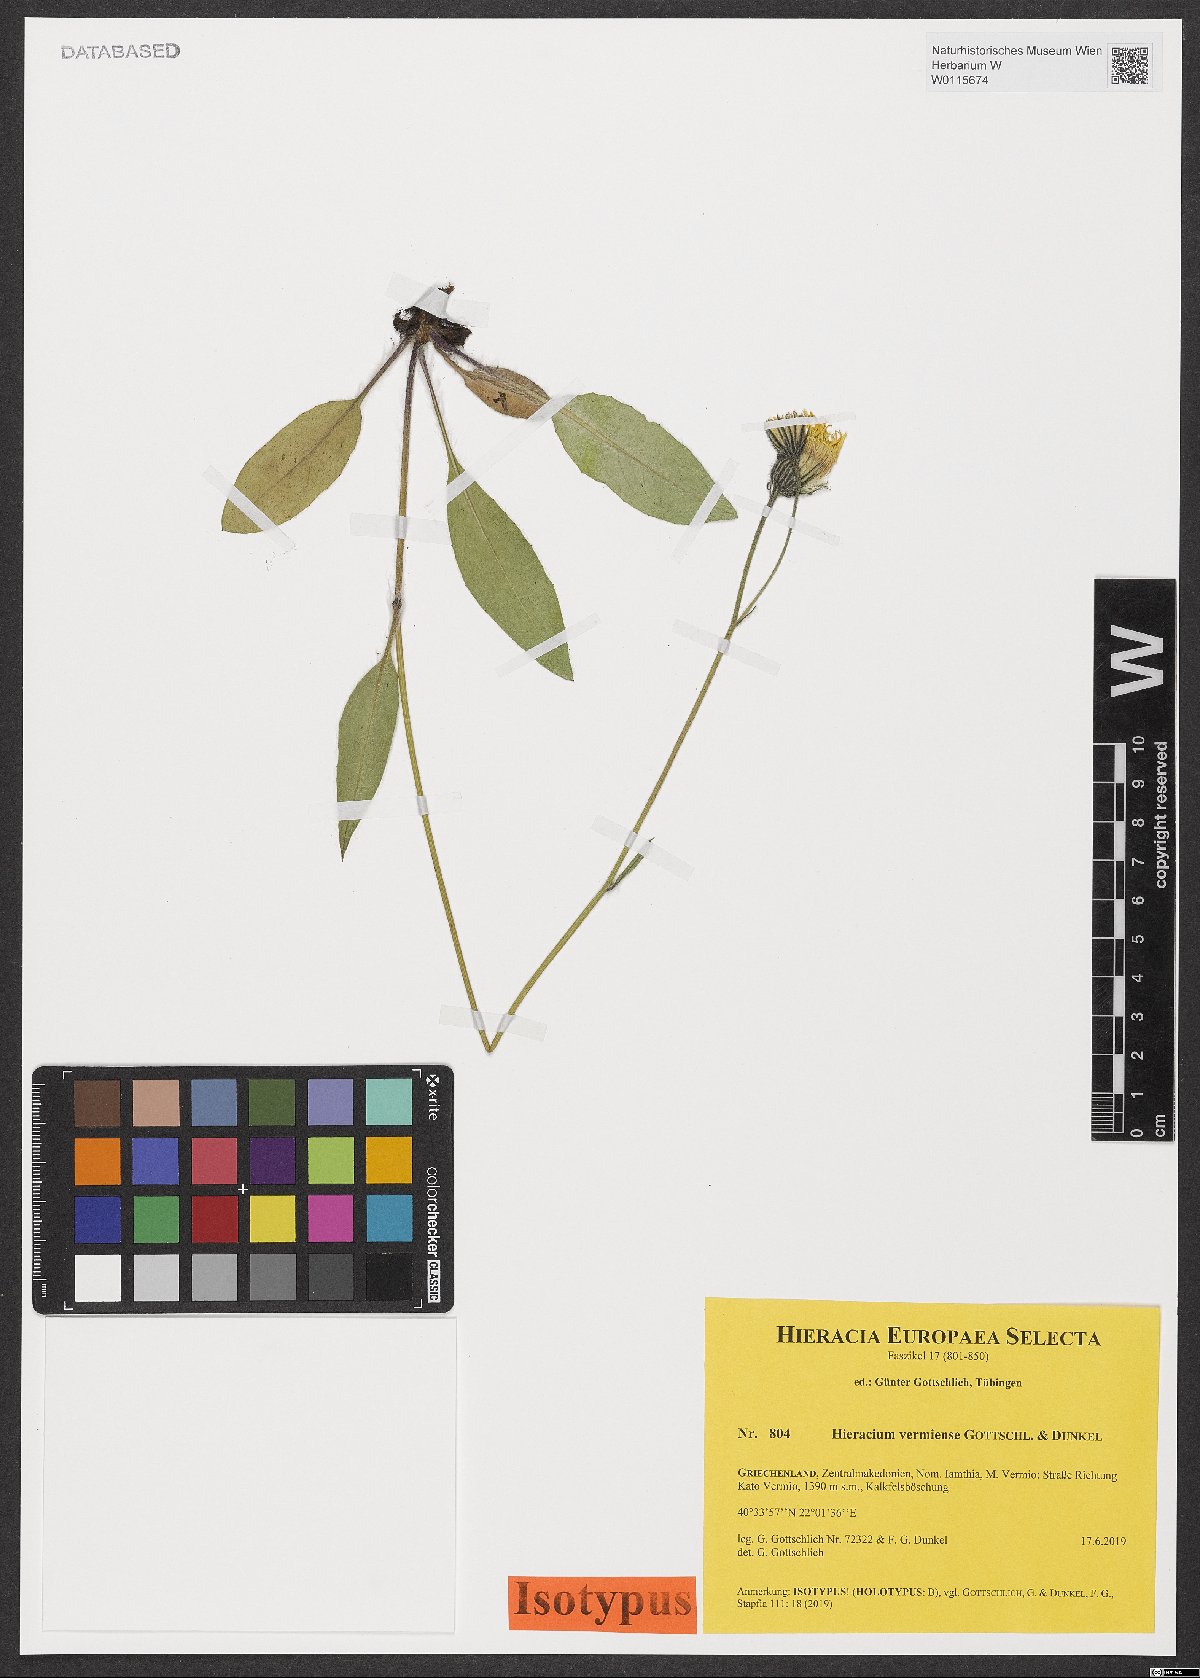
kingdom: Plantae
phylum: Tracheophyta
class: Magnoliopsida
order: Asterales
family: Asteraceae
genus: Hieracium
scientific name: Hieracium vermiense
